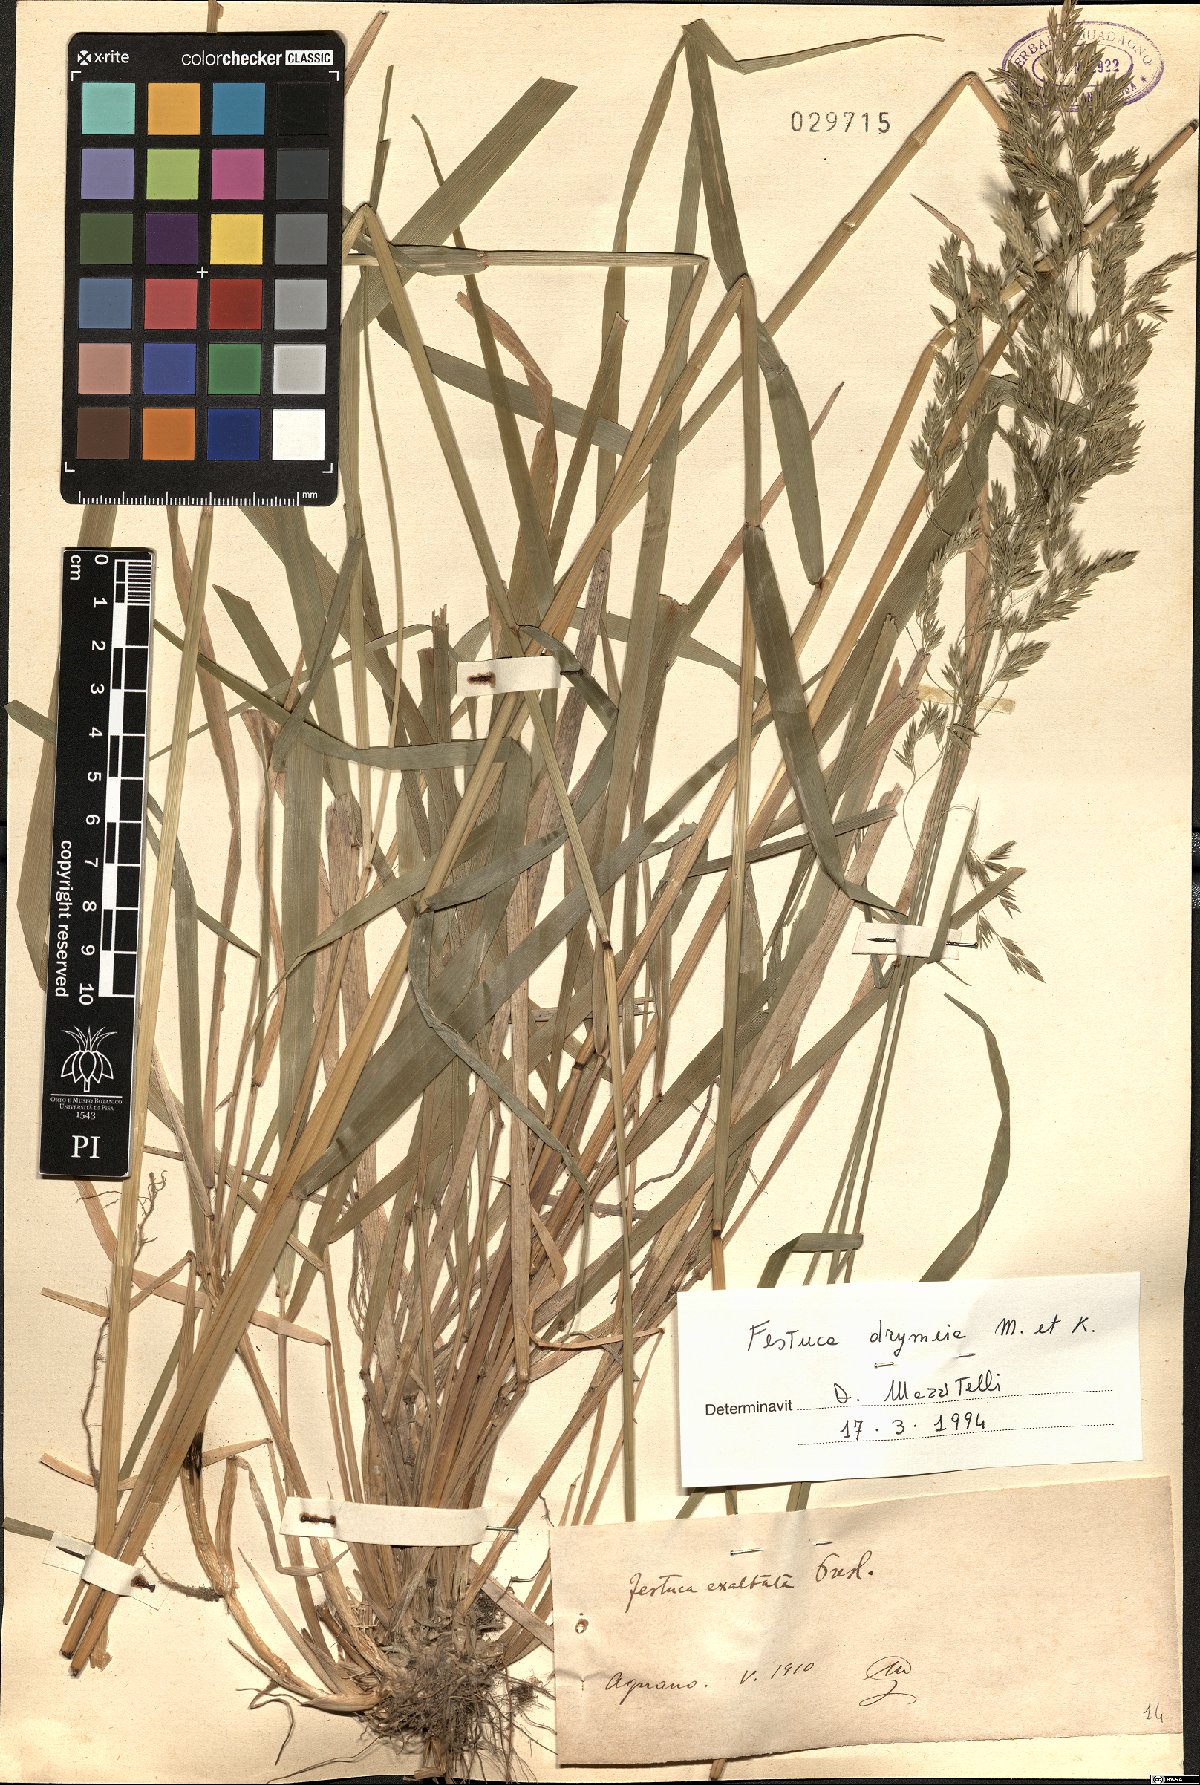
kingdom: Plantae
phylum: Tracheophyta
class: Liliopsida
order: Poales
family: Poaceae
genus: Festuca
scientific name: Festuca drymeja
